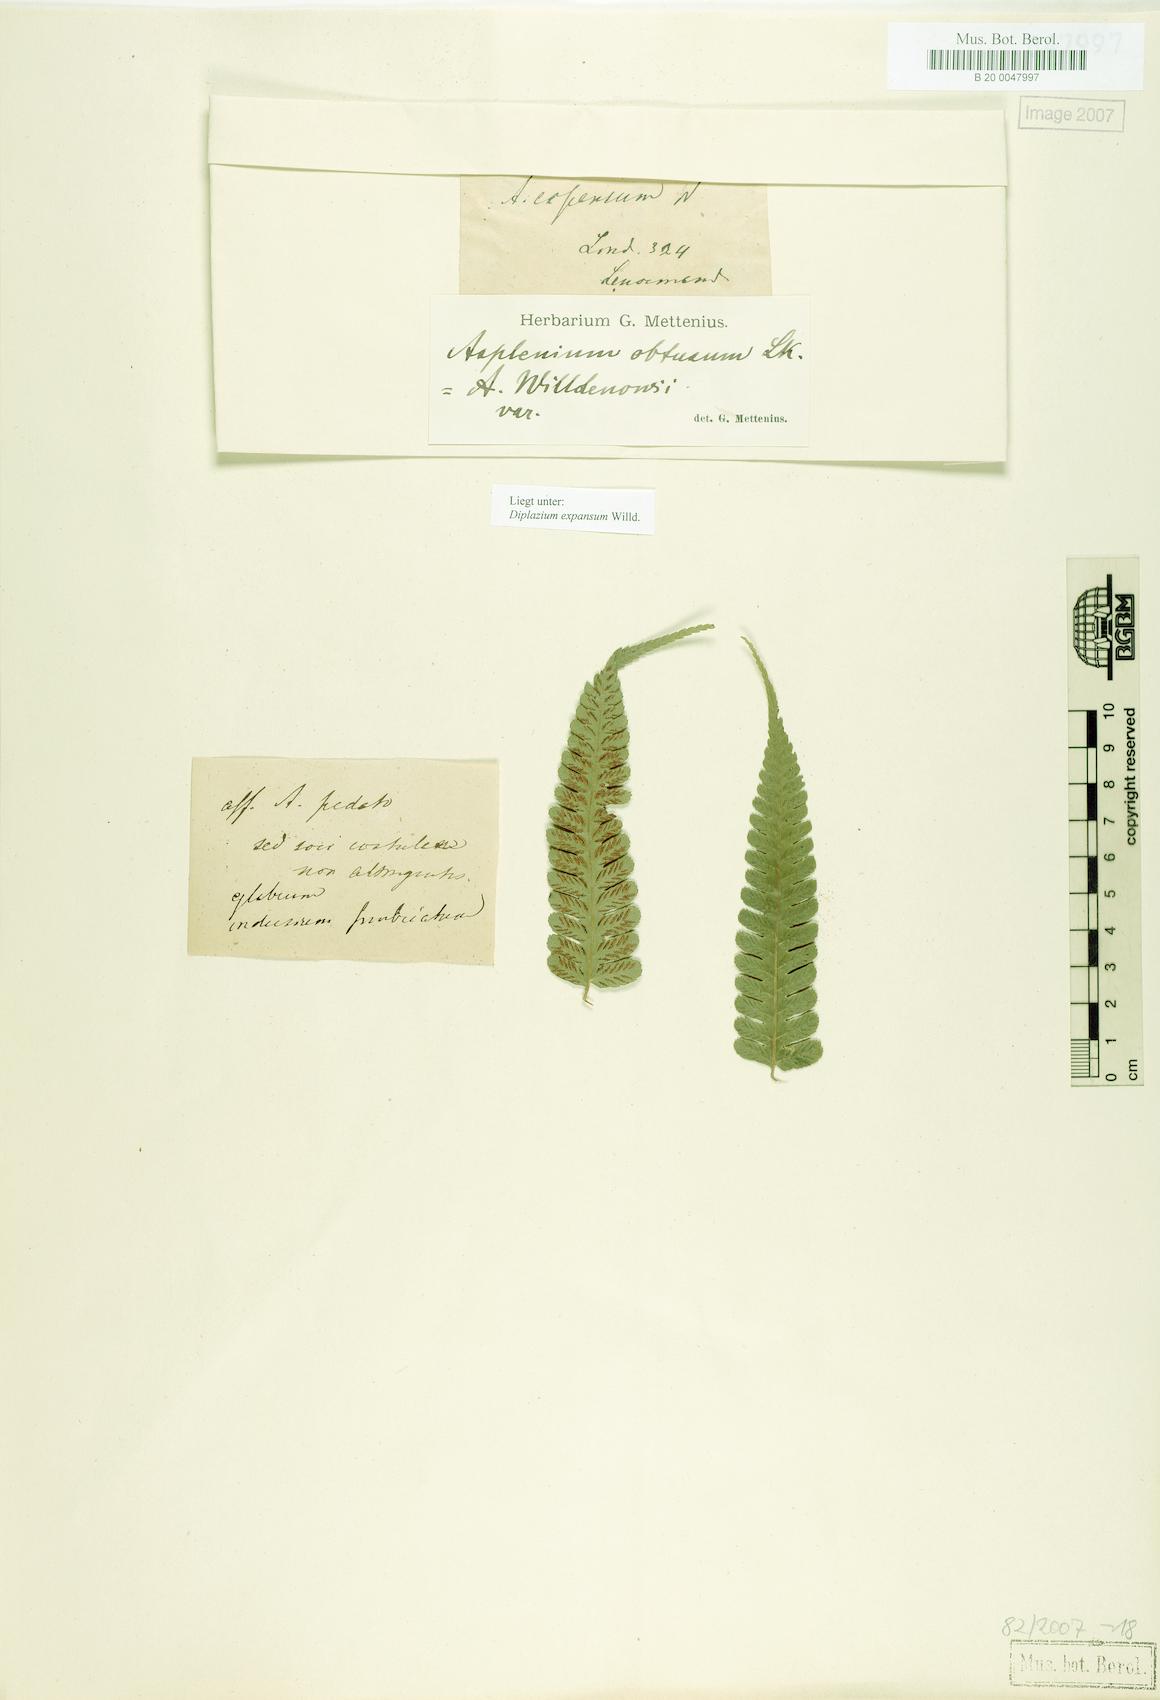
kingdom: Plantae
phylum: Tracheophyta
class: Polypodiopsida
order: Polypodiales
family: Athyriaceae
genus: Diplazium
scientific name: Diplazium expansum
